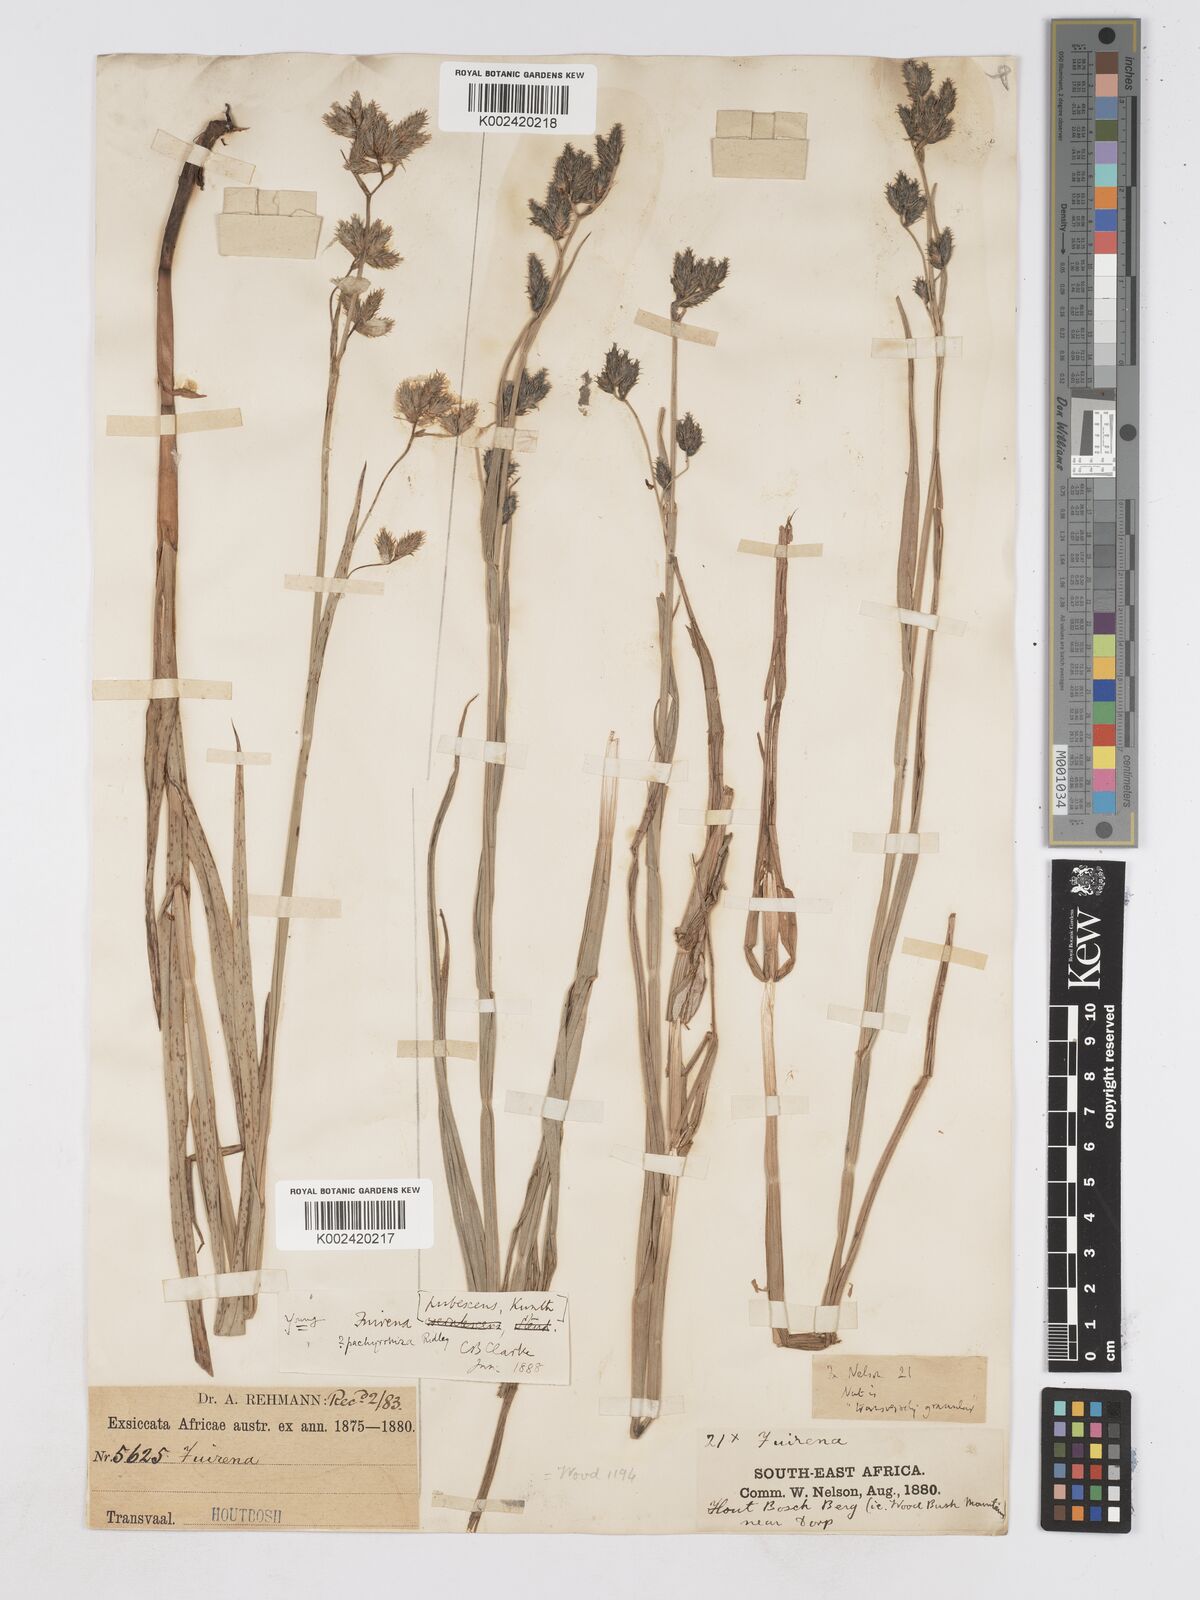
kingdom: Plantae
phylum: Tracheophyta
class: Liliopsida
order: Poales
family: Cyperaceae
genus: Fuirena
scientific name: Fuirena pachyrrhiza
